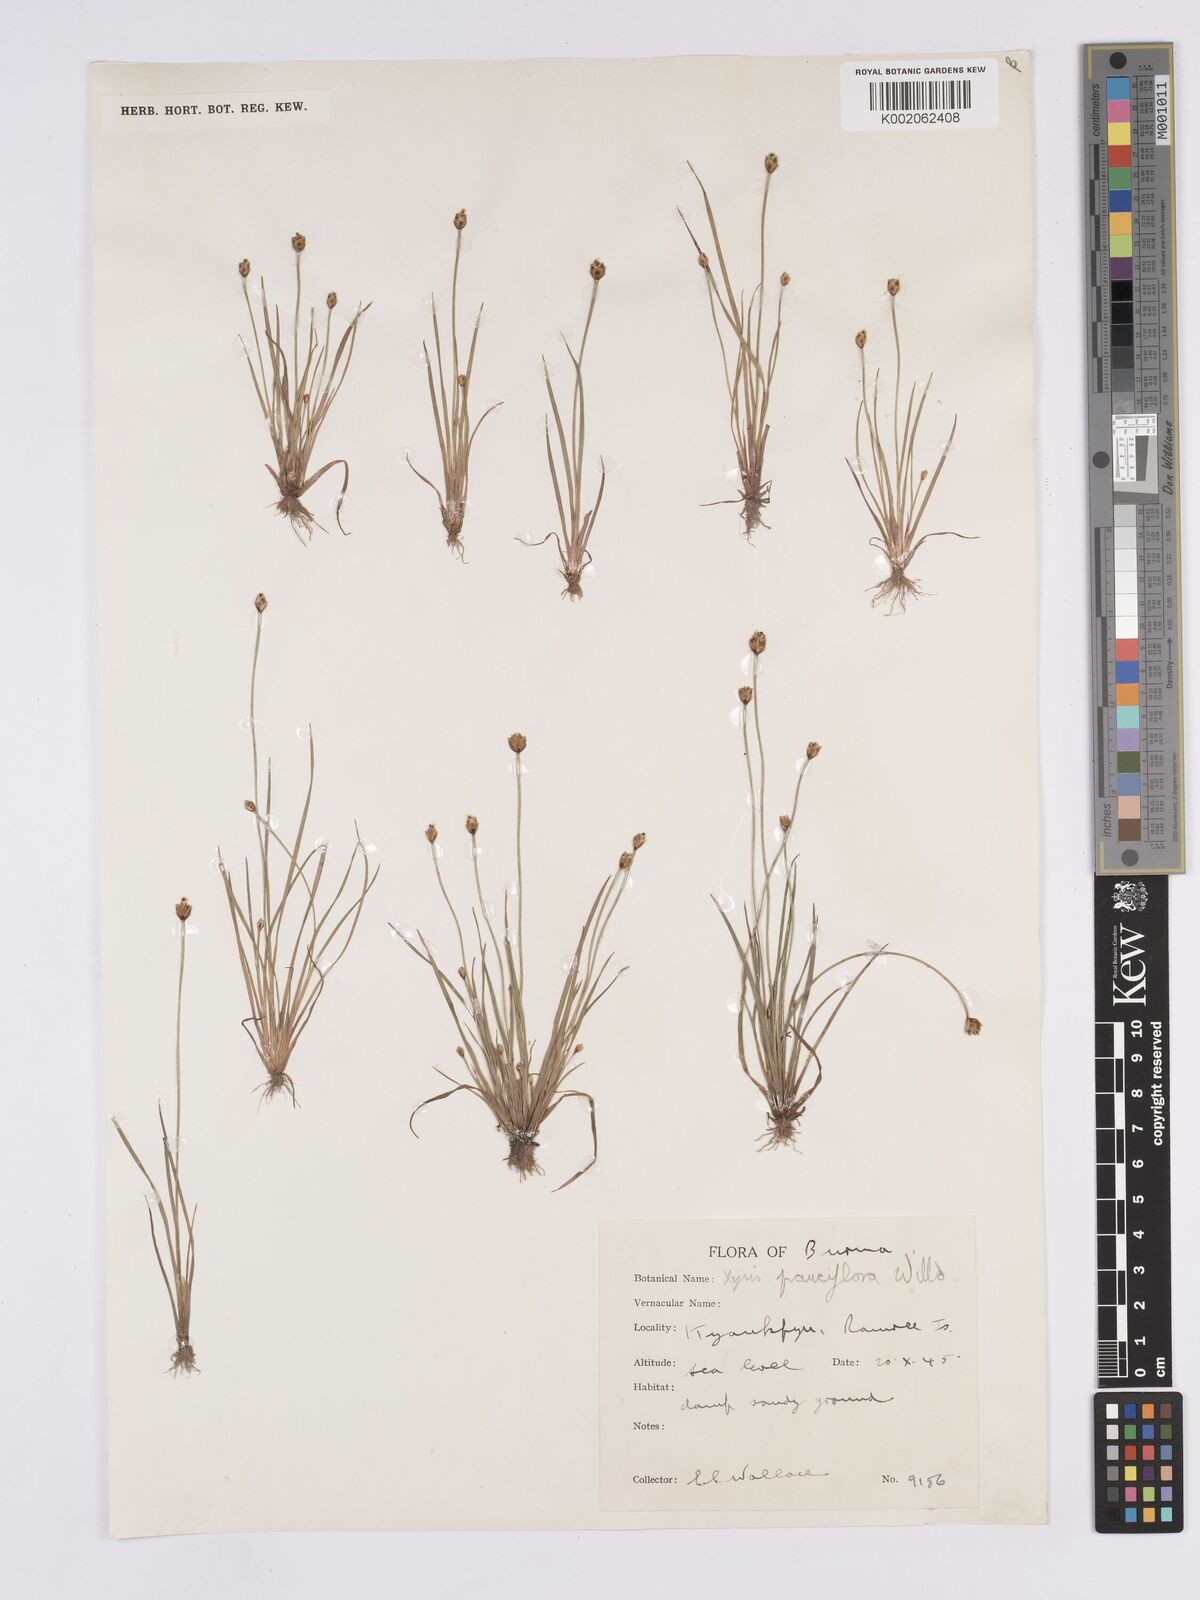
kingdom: Plantae
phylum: Tracheophyta
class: Liliopsida
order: Poales
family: Xyridaceae
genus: Xyris
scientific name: Xyris pauciflora
